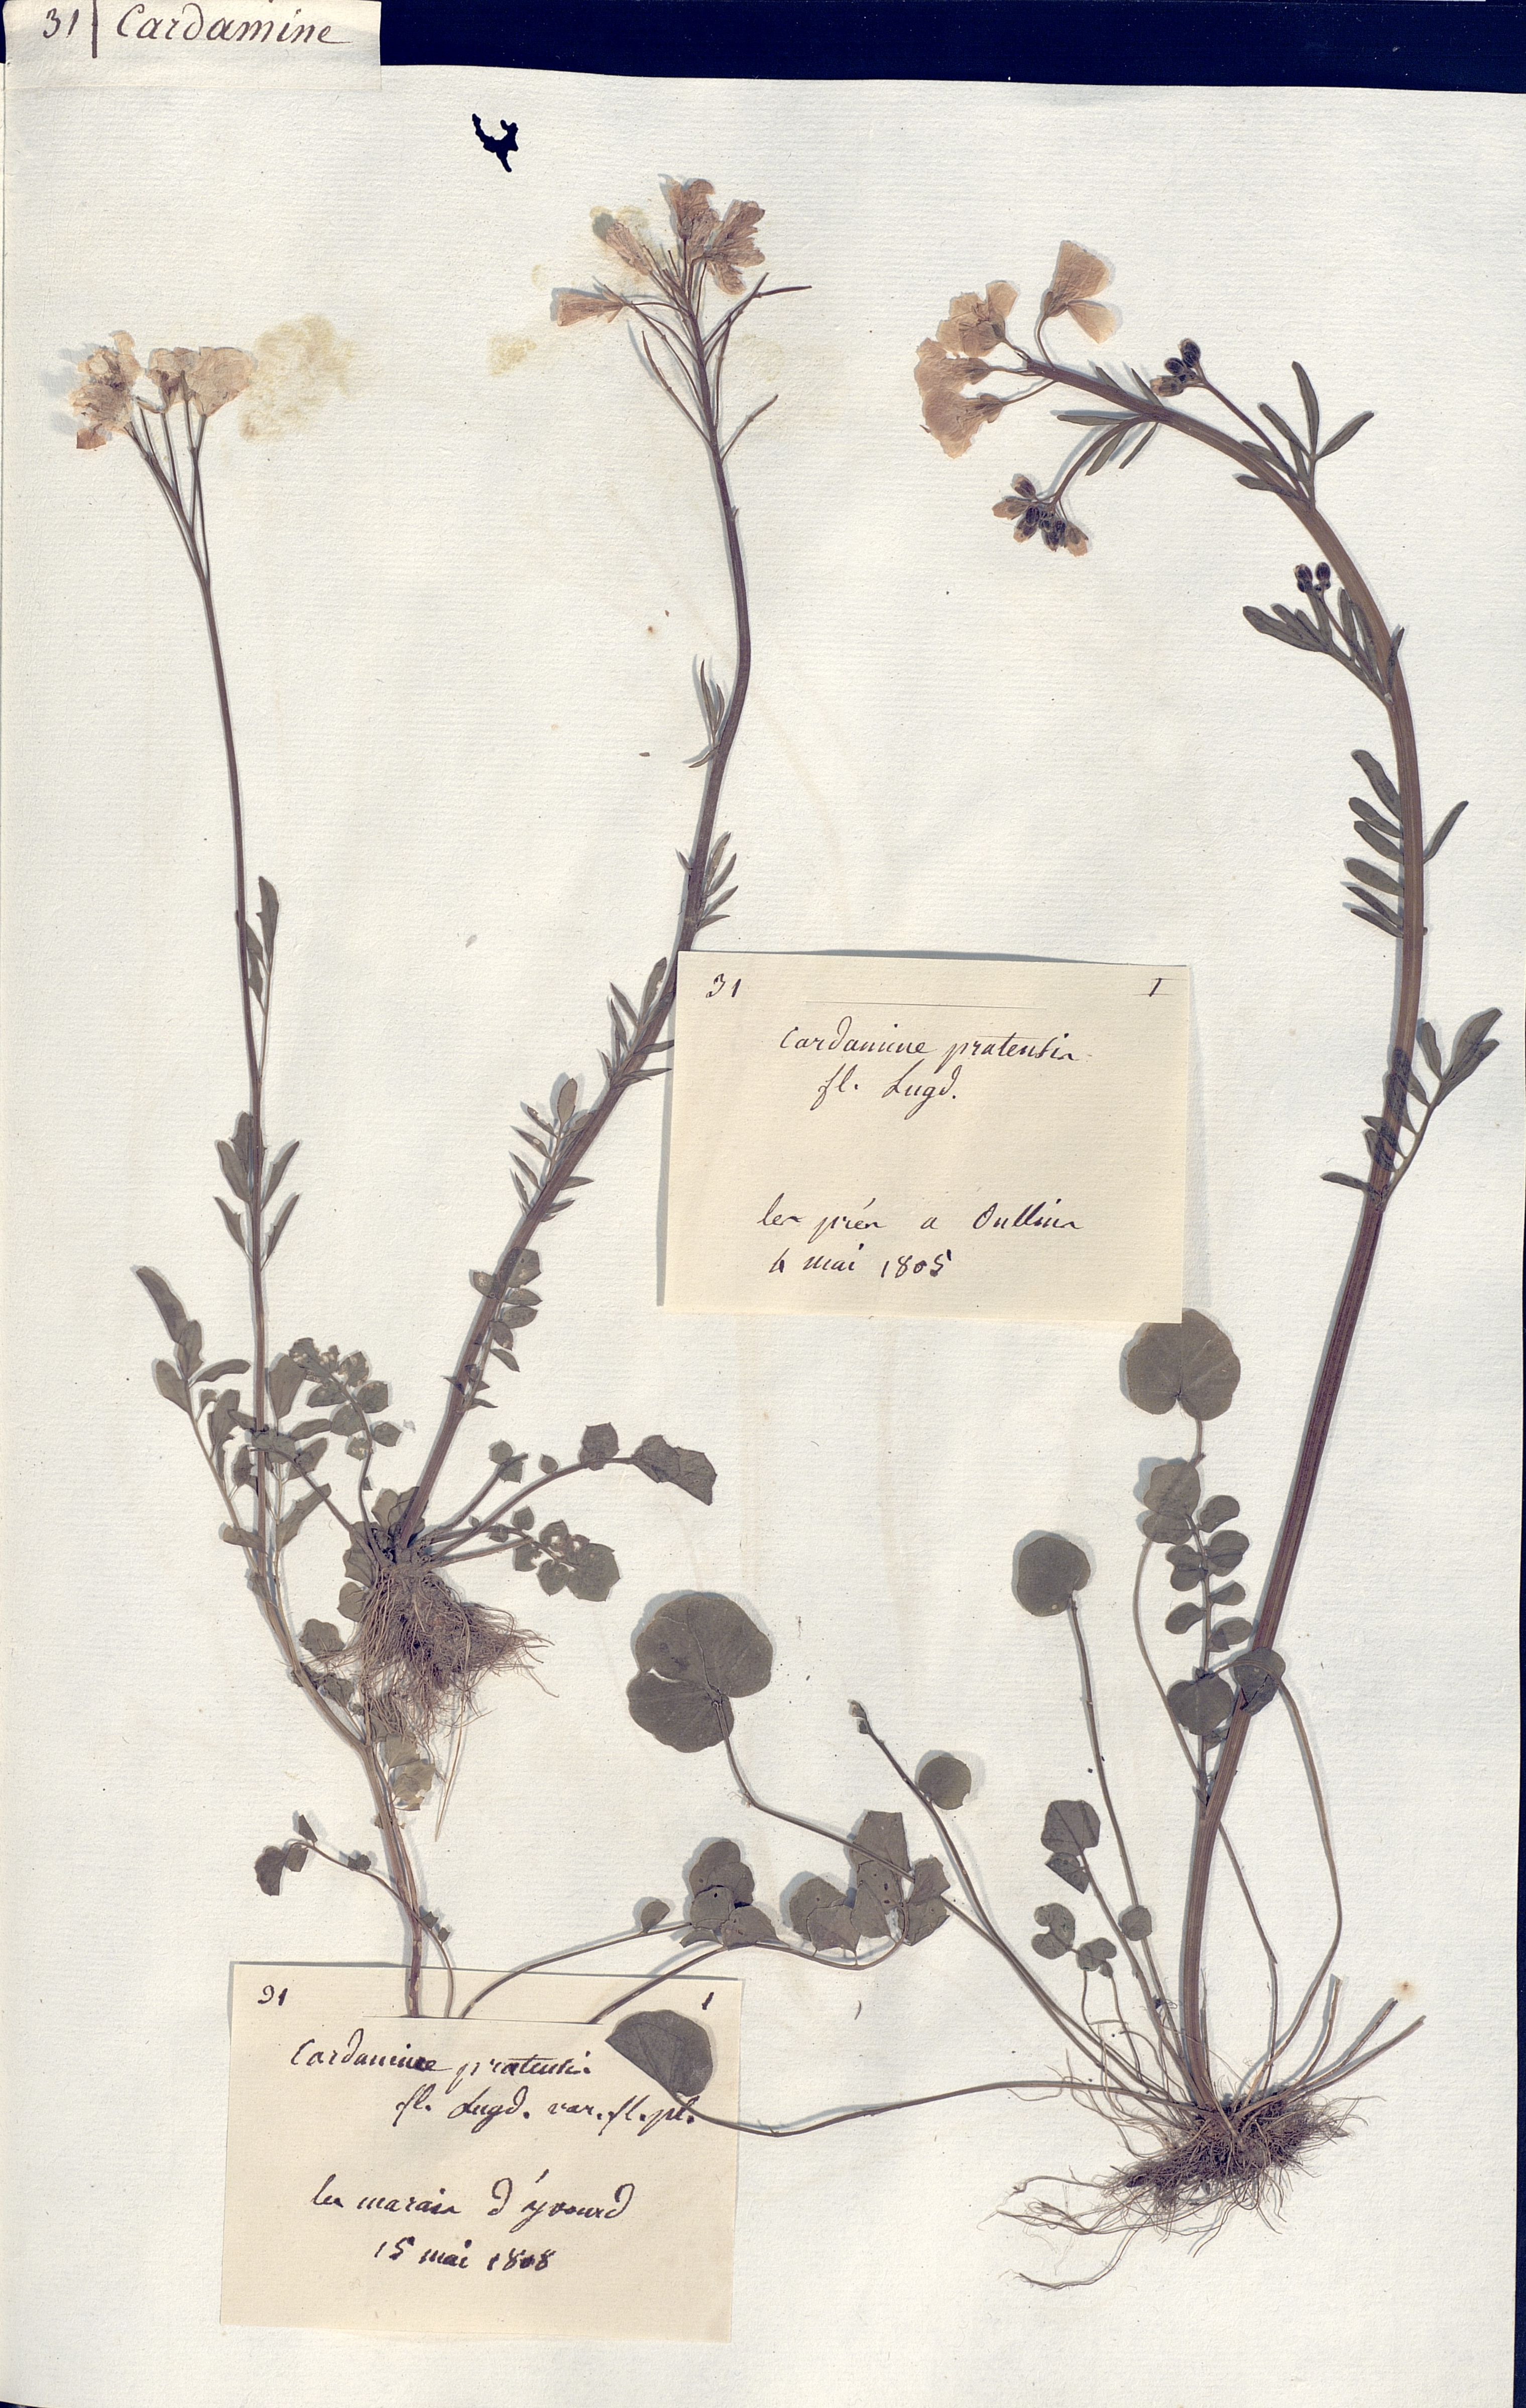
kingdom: Plantae
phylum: Tracheophyta
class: Magnoliopsida
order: Brassicales
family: Brassicaceae
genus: Cardamine
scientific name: Cardamine pratensis
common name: Cuckoo flower
